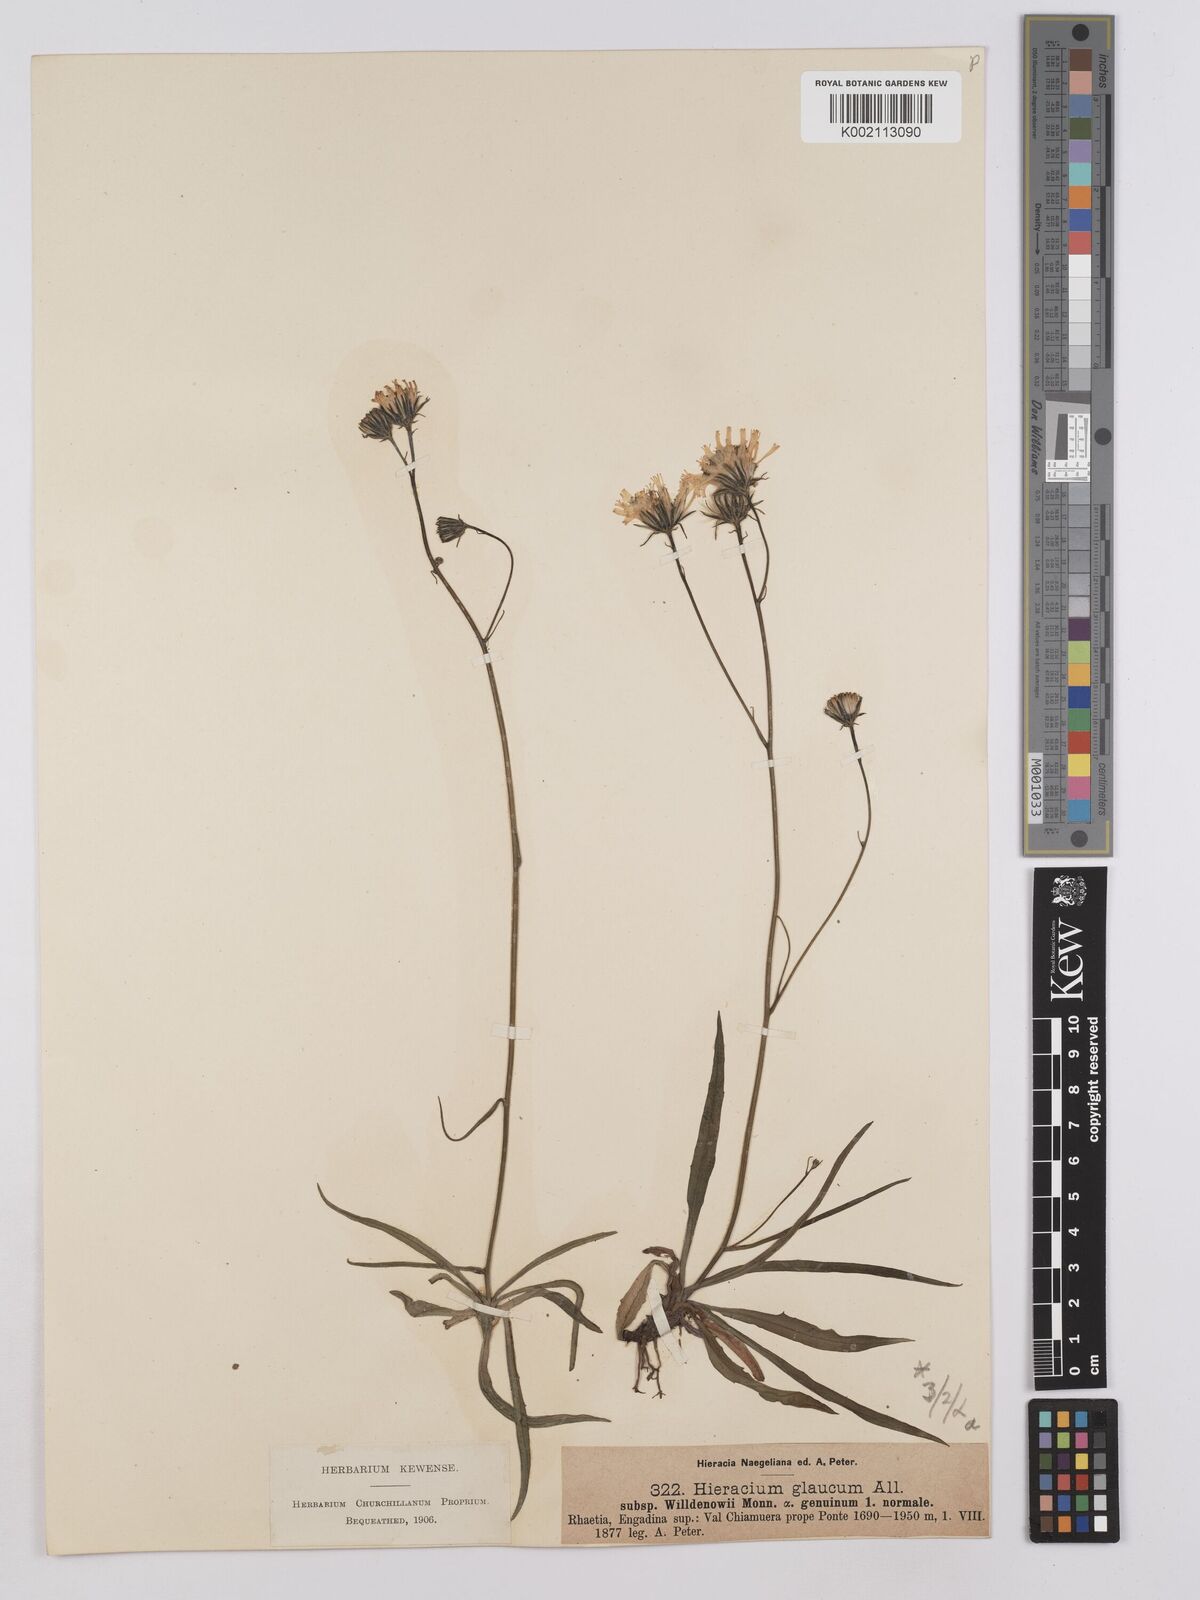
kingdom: Plantae
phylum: Tracheophyta
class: Magnoliopsida
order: Asterales
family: Asteraceae
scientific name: Asteraceae
